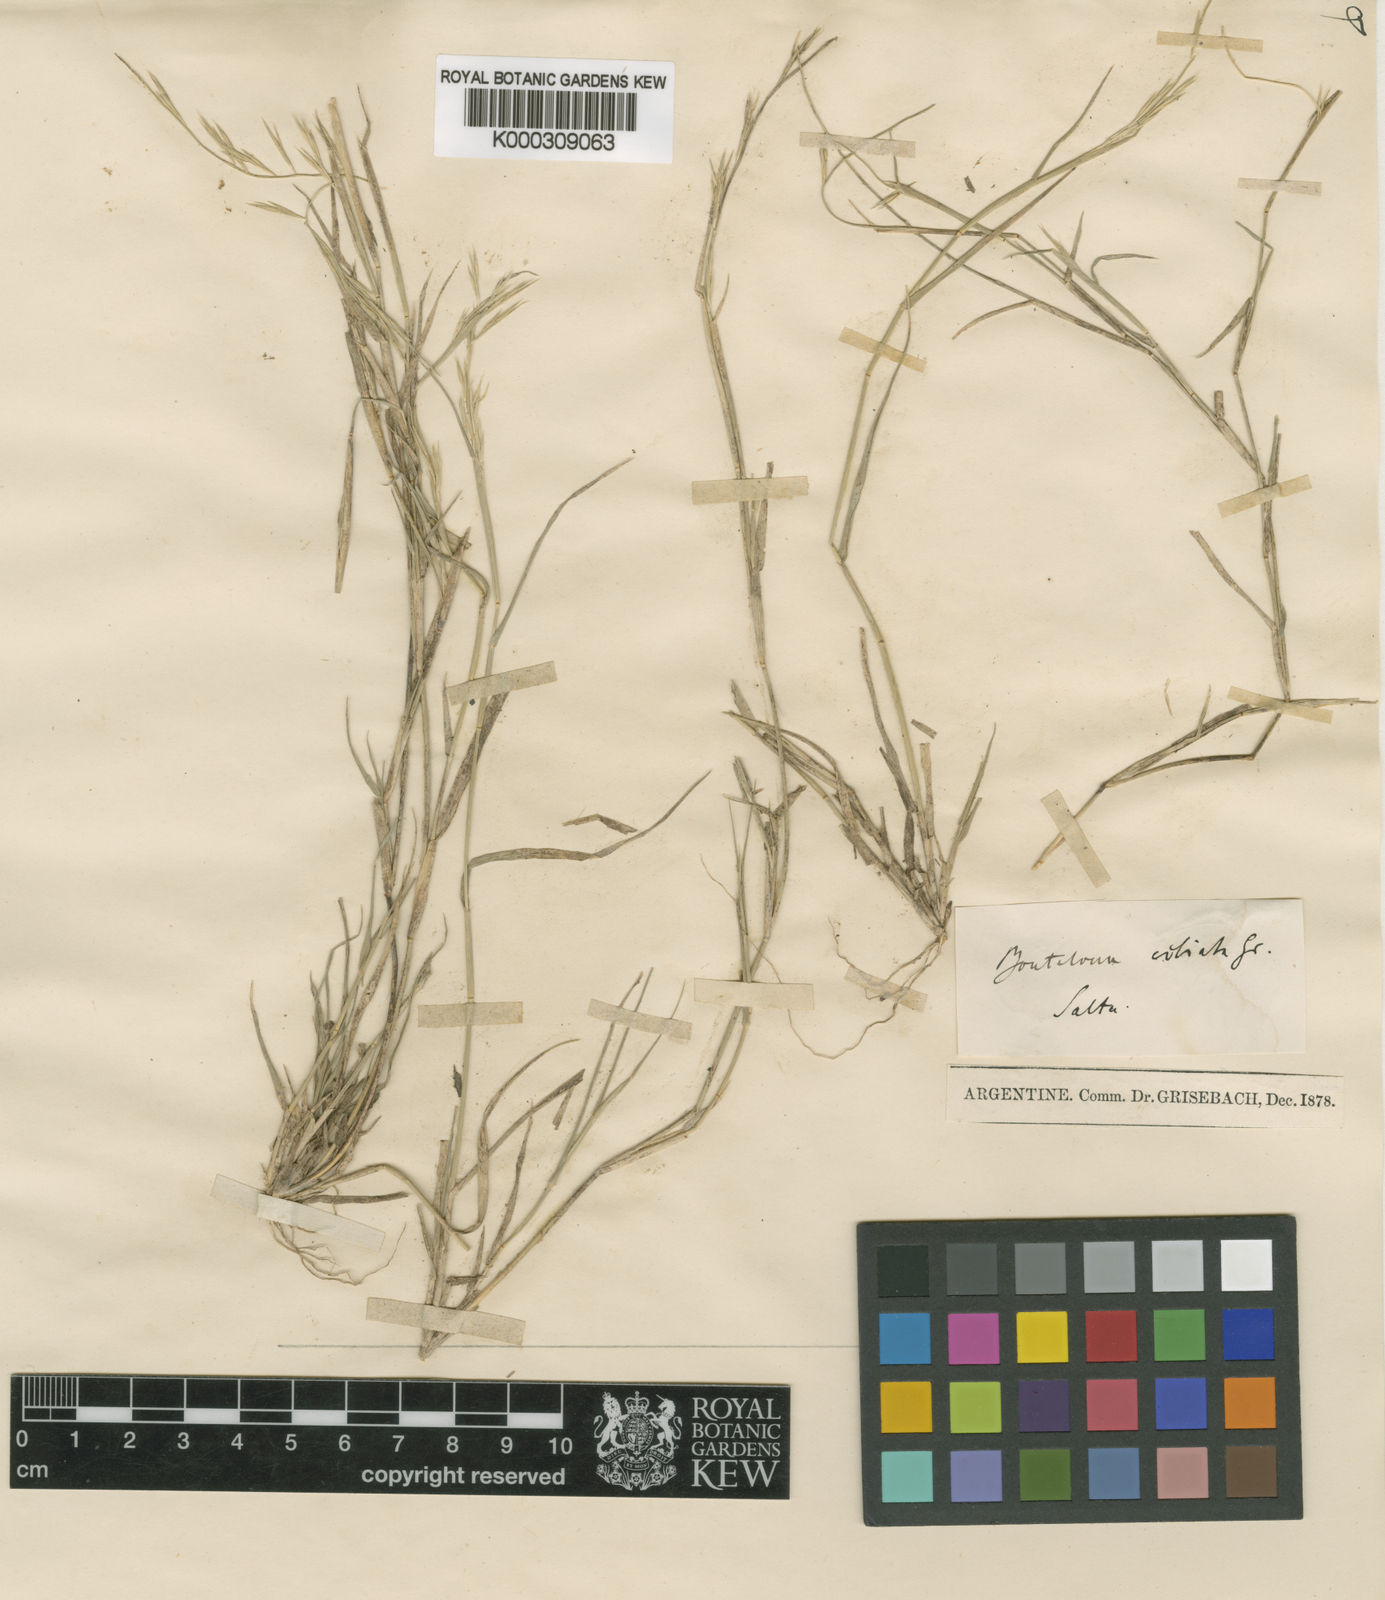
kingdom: Plantae
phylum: Tracheophyta
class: Liliopsida
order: Poales
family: Poaceae
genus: Bouteloua
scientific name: Bouteloua aristidoides
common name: Needle grama
